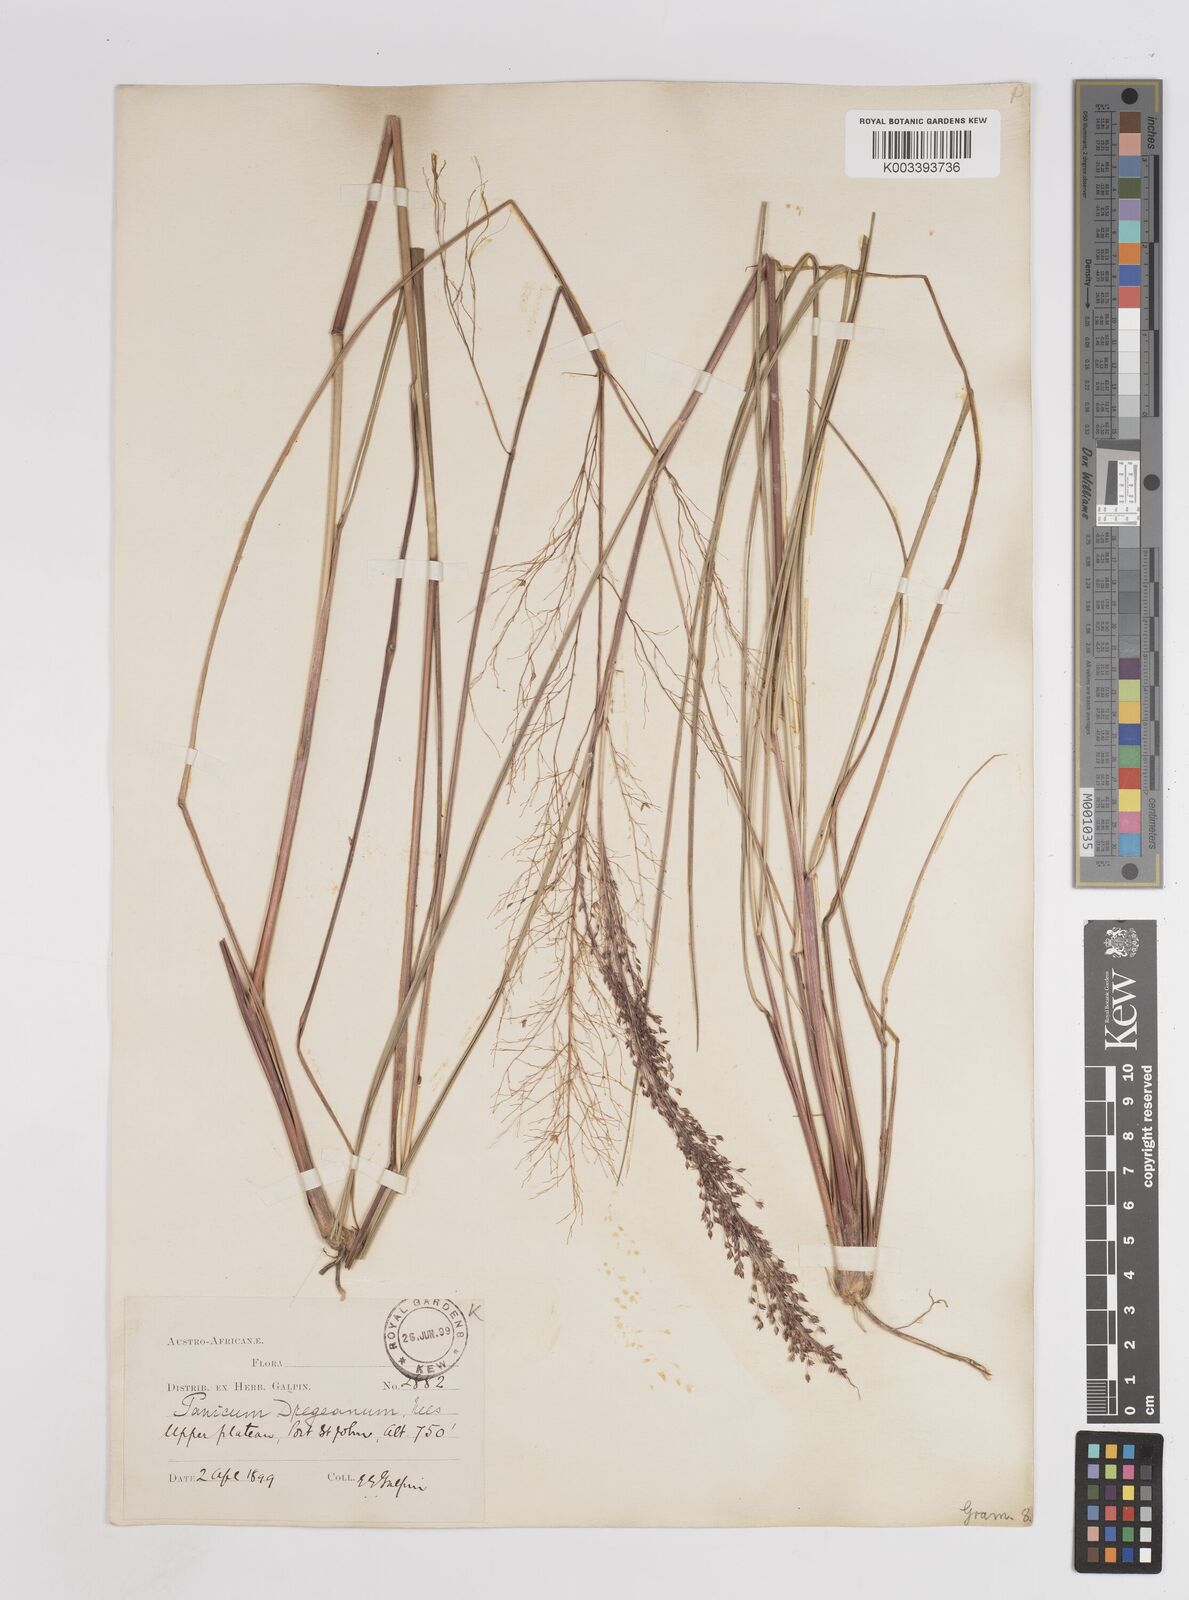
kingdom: Plantae
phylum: Tracheophyta
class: Liliopsida
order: Poales
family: Poaceae
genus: Panicum
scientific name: Panicum dregeanum
